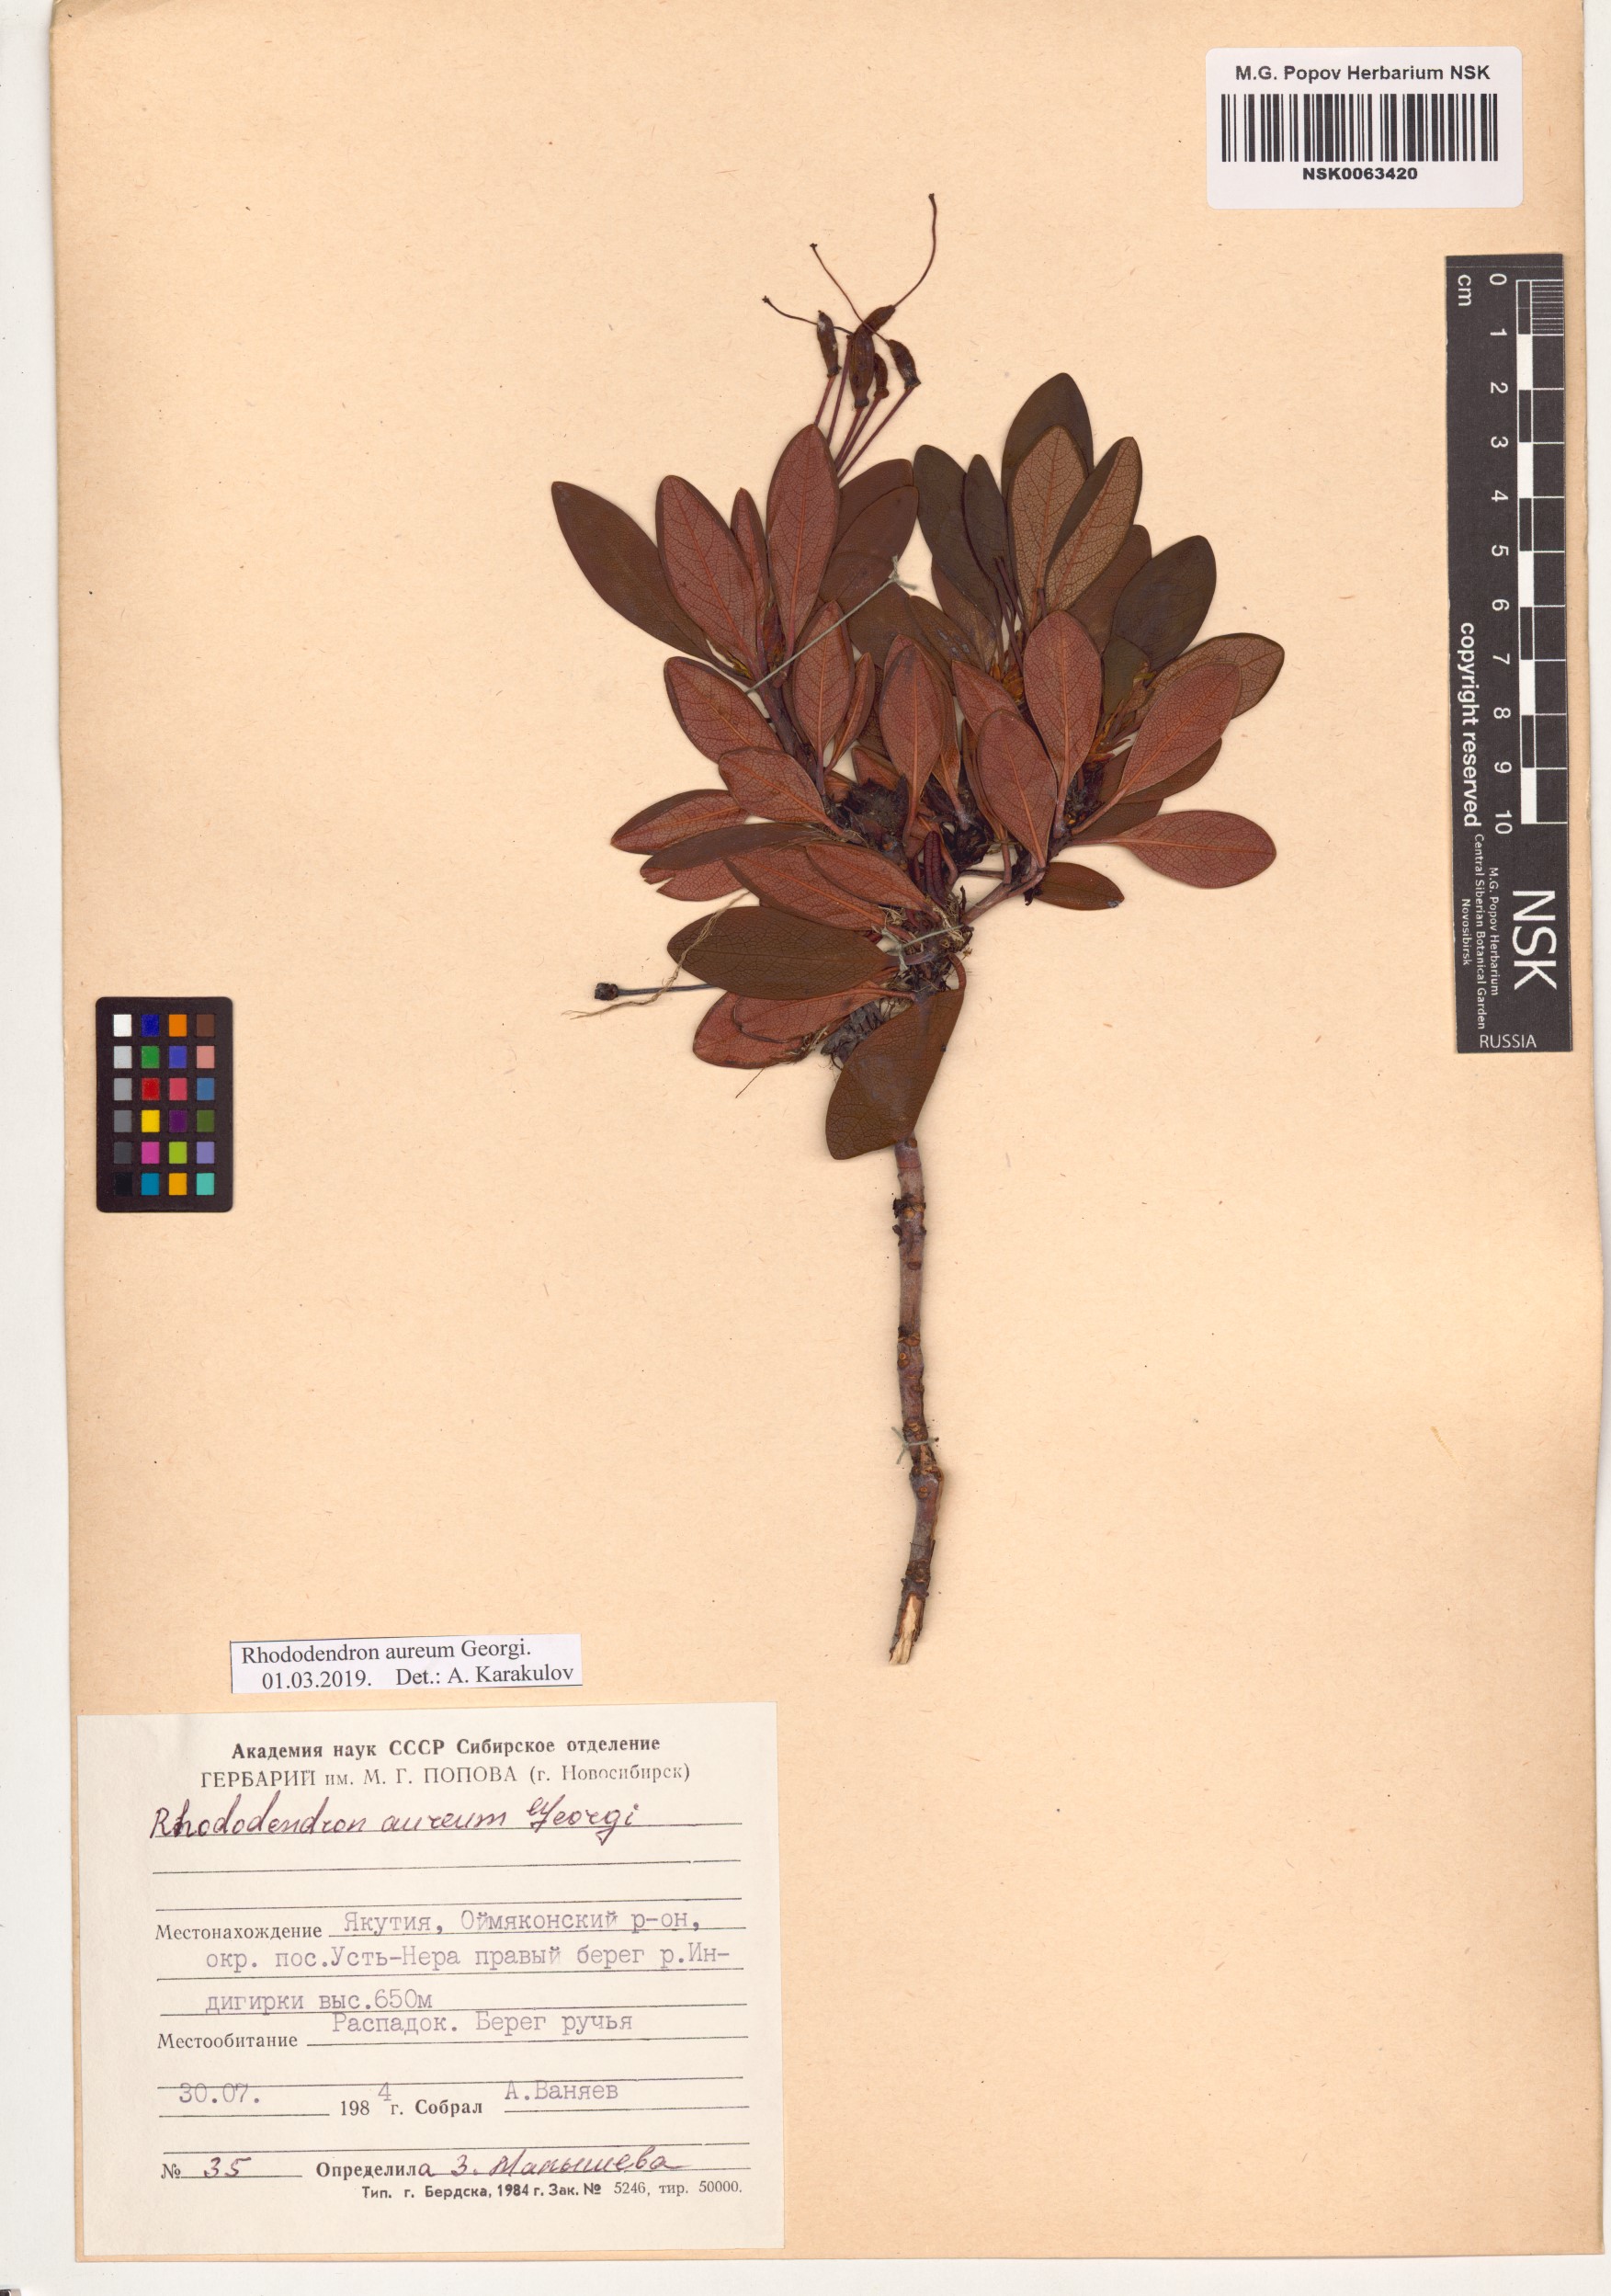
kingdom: Plantae
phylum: Tracheophyta
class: Magnoliopsida
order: Ericales
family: Ericaceae
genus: Rhododendron
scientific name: Rhododendron aureum
